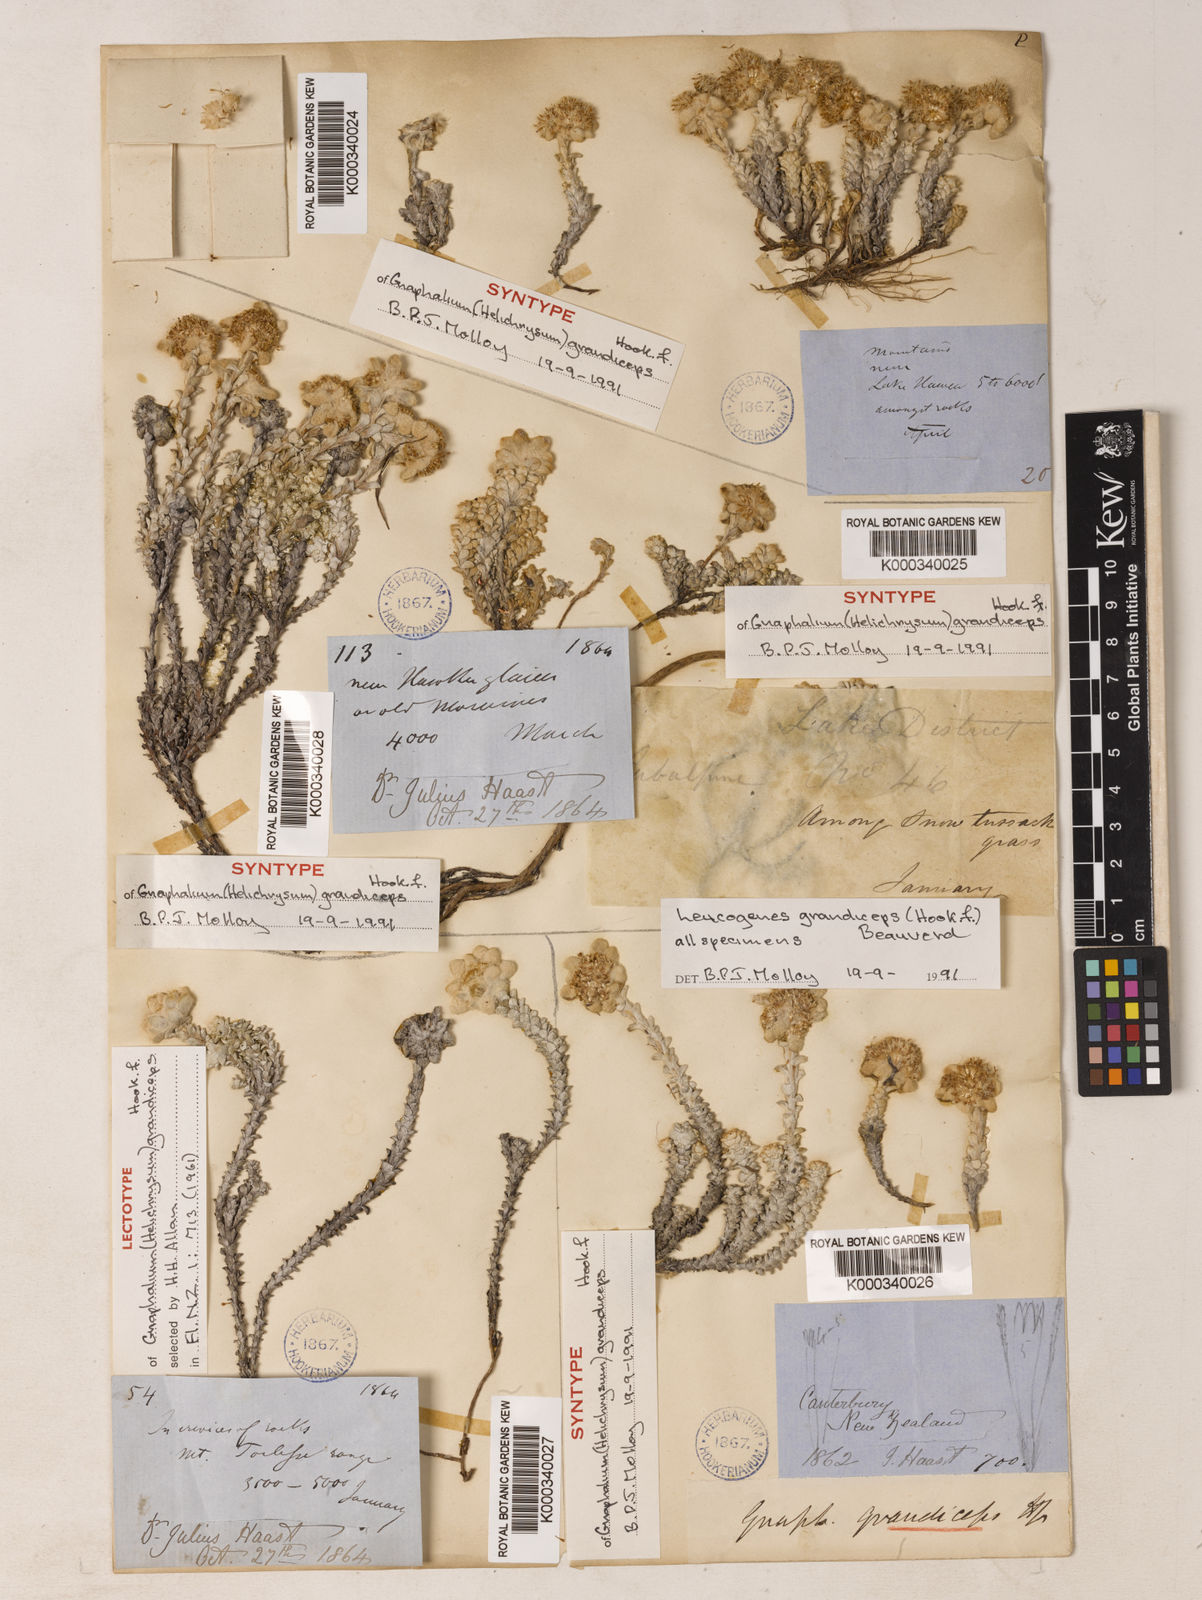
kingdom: Plantae
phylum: Tracheophyta
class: Magnoliopsida
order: Asterales
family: Asteraceae
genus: Leucogenes
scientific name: Leucogenes grandiceps
